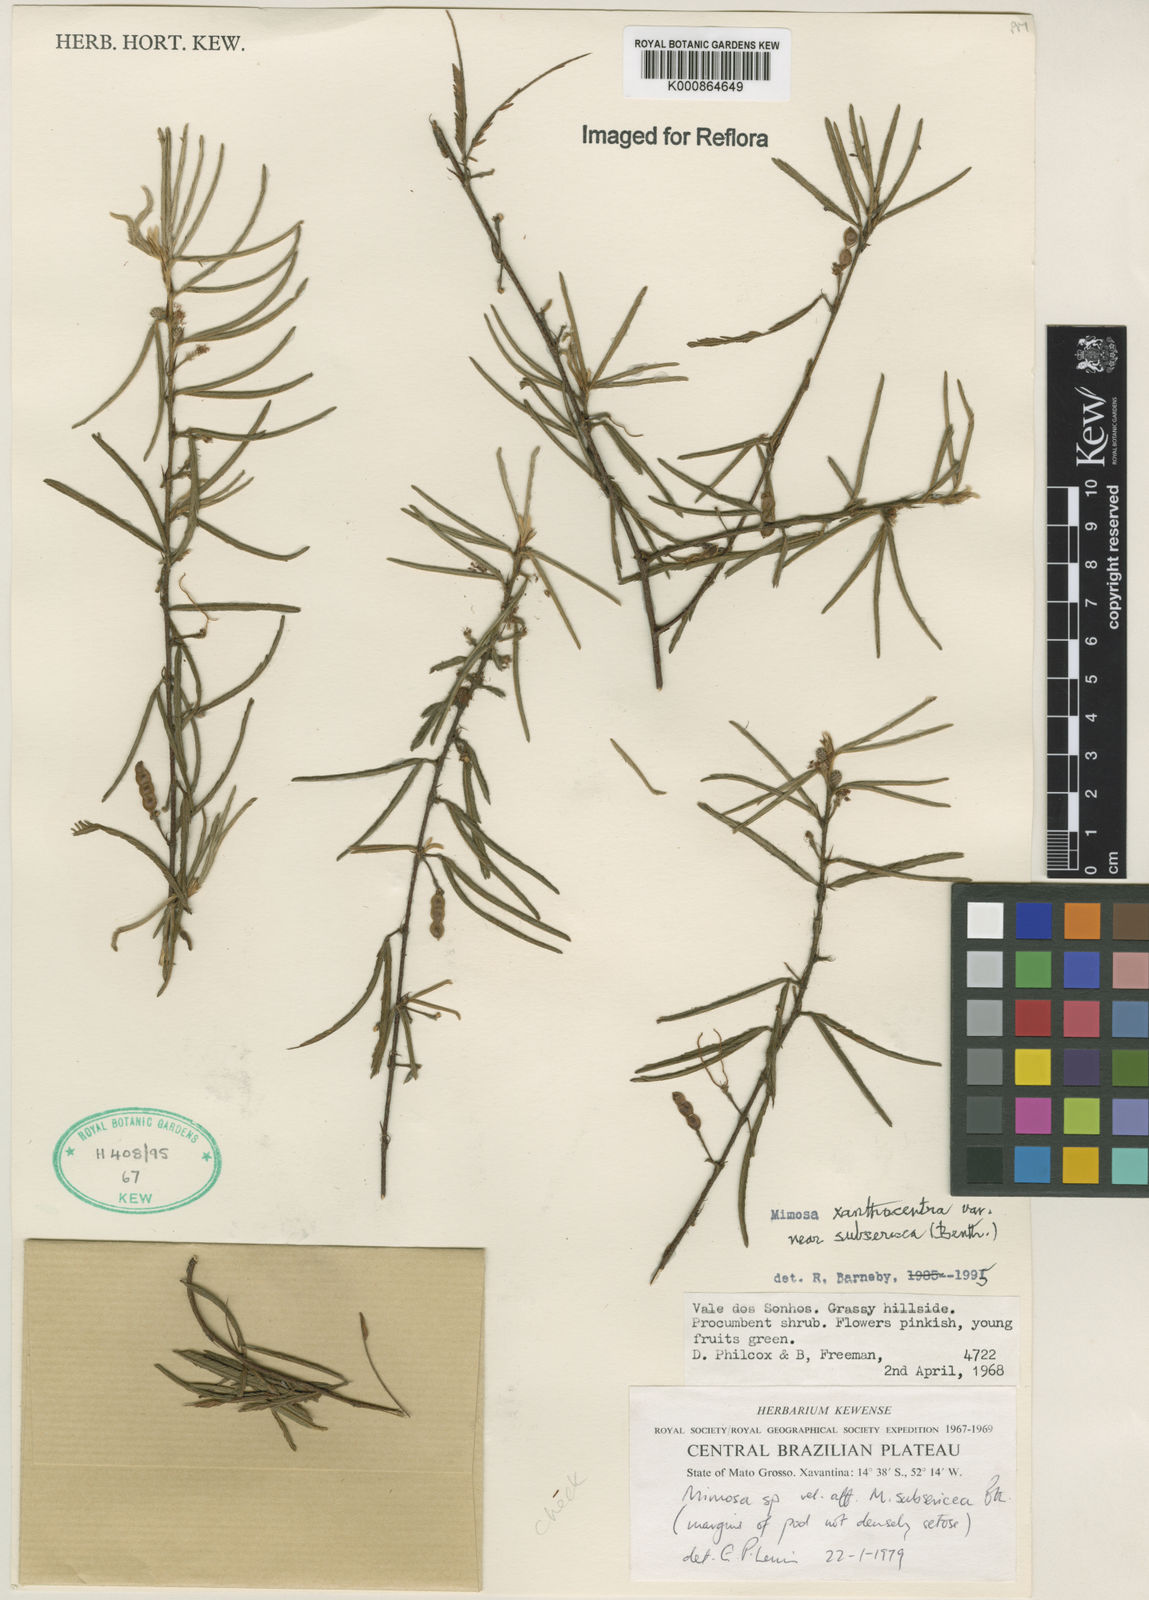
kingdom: Plantae
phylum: Tracheophyta
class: Magnoliopsida
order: Fabales
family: Fabaceae
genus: Mimosa
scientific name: Mimosa xanthocentra
